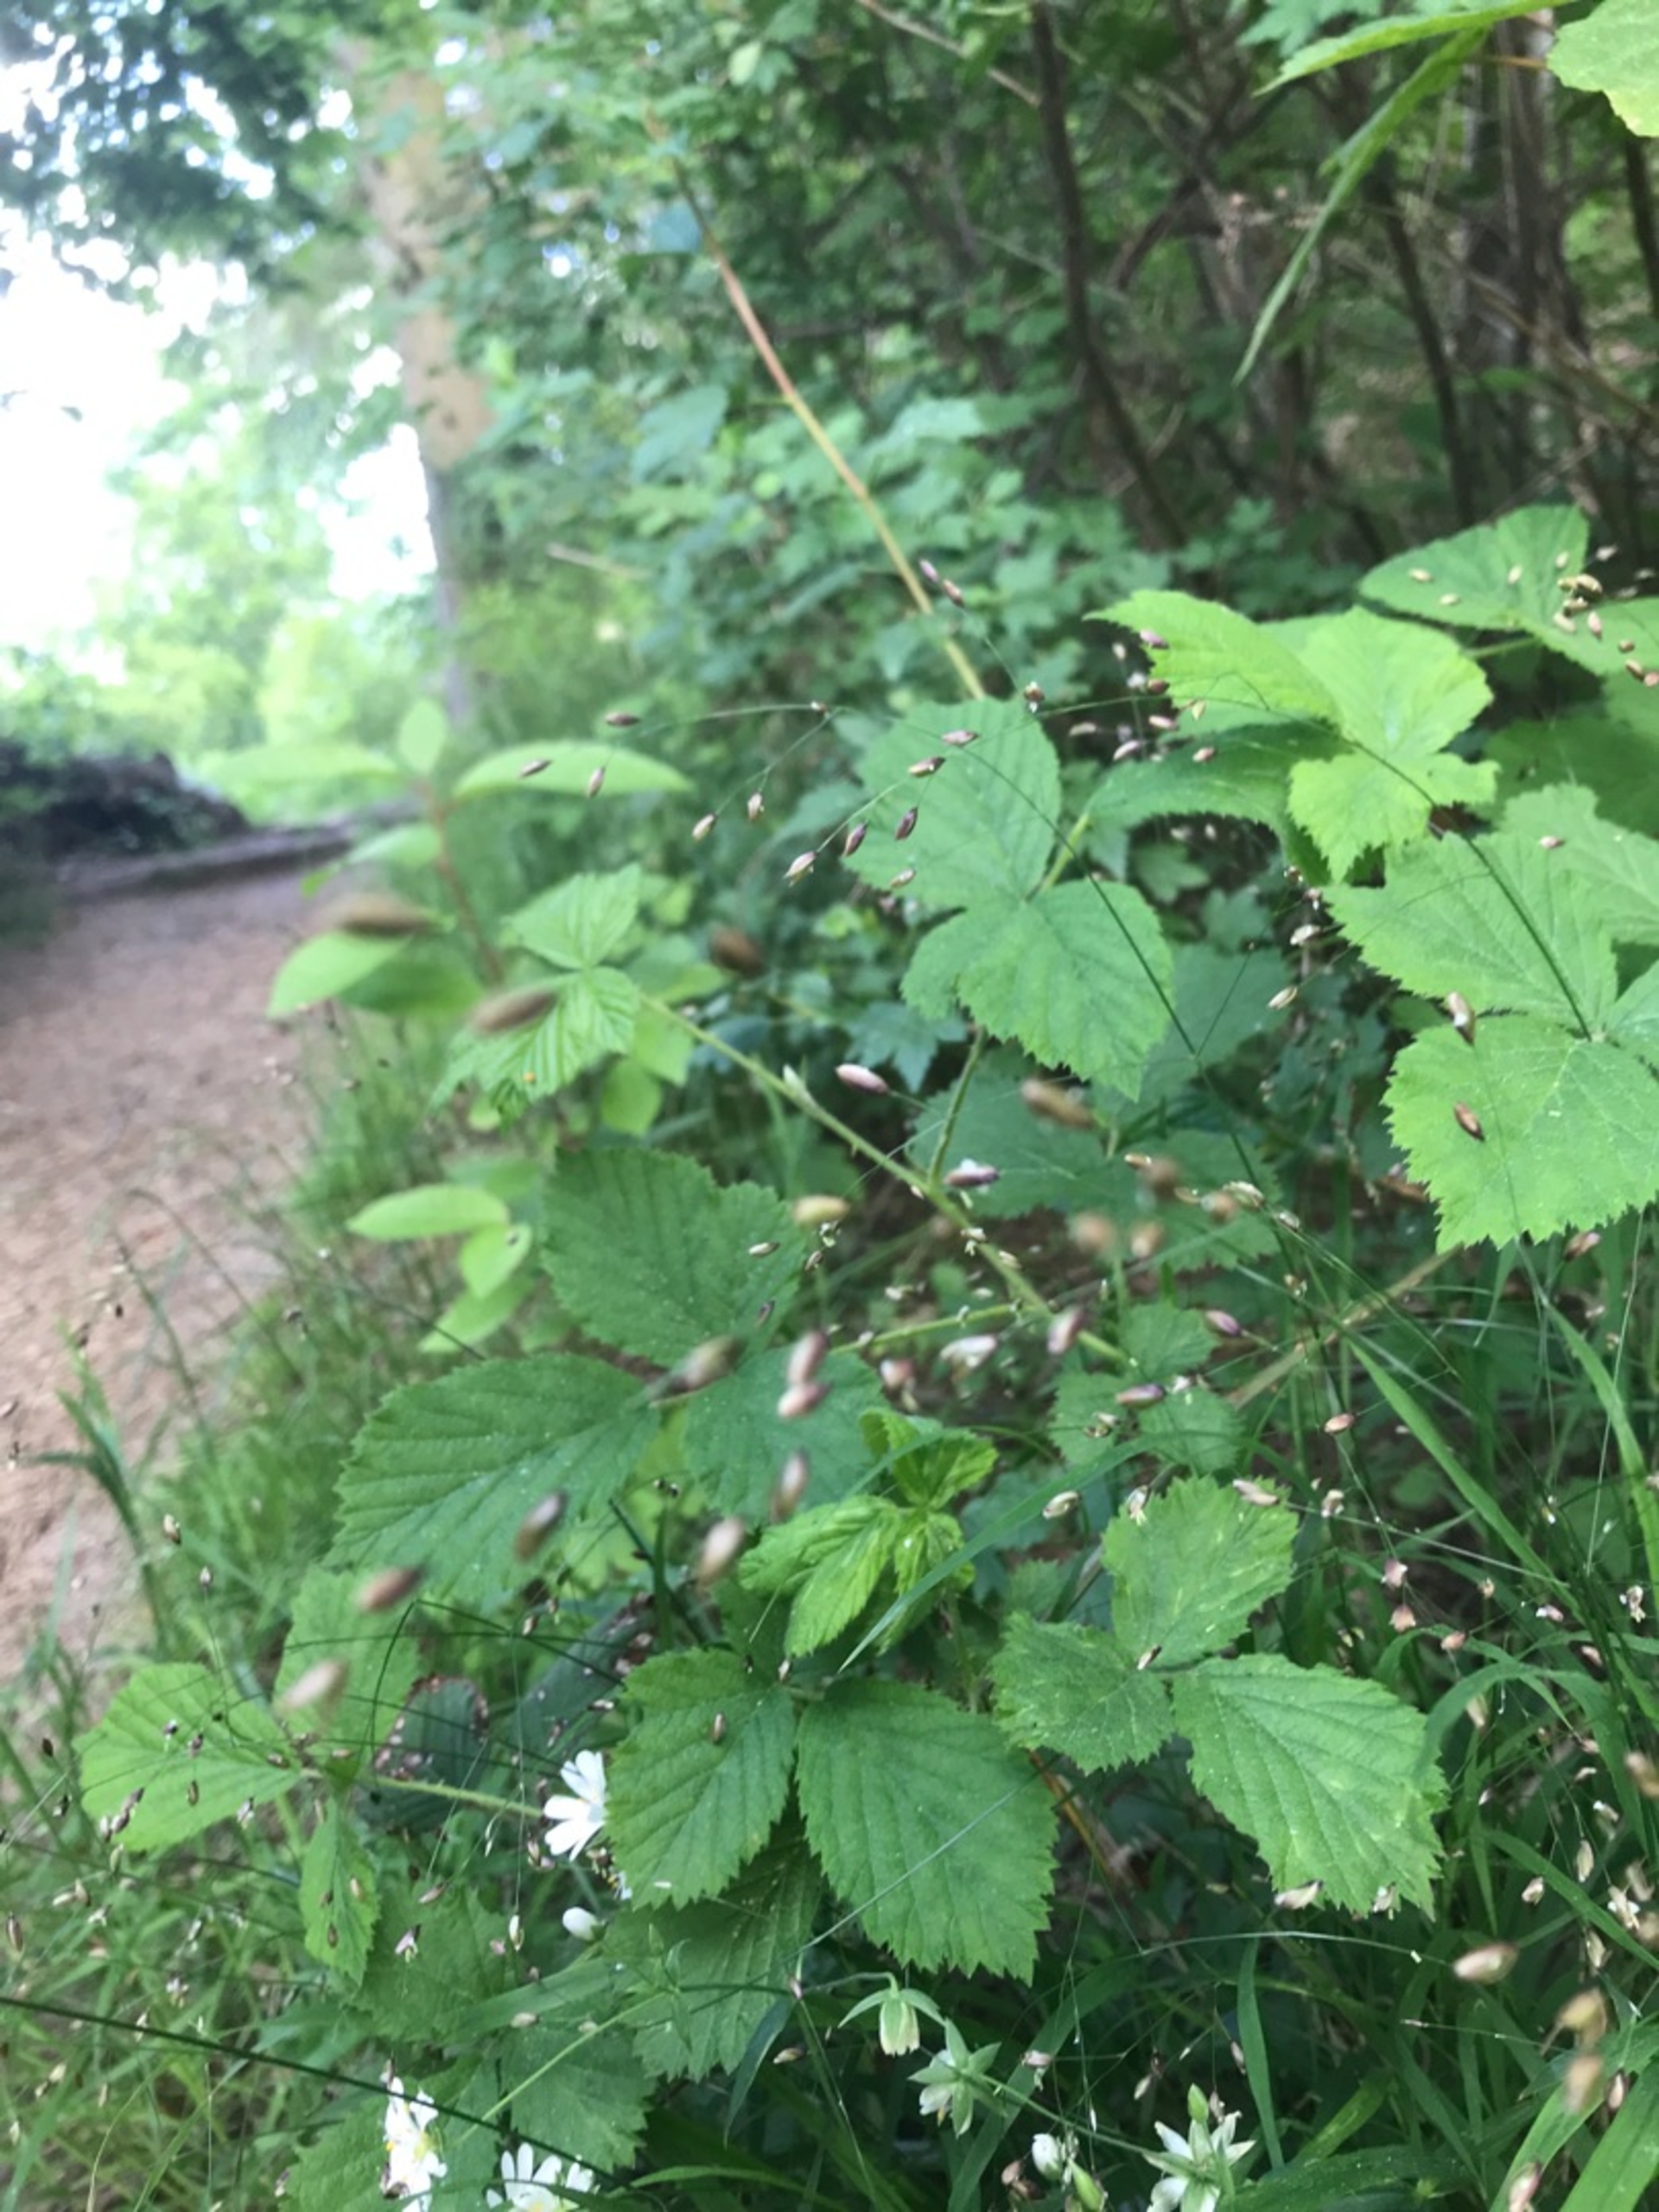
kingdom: Plantae
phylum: Tracheophyta
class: Liliopsida
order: Poales
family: Poaceae
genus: Melica
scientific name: Melica uniflora
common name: Enblomstret flitteraks
